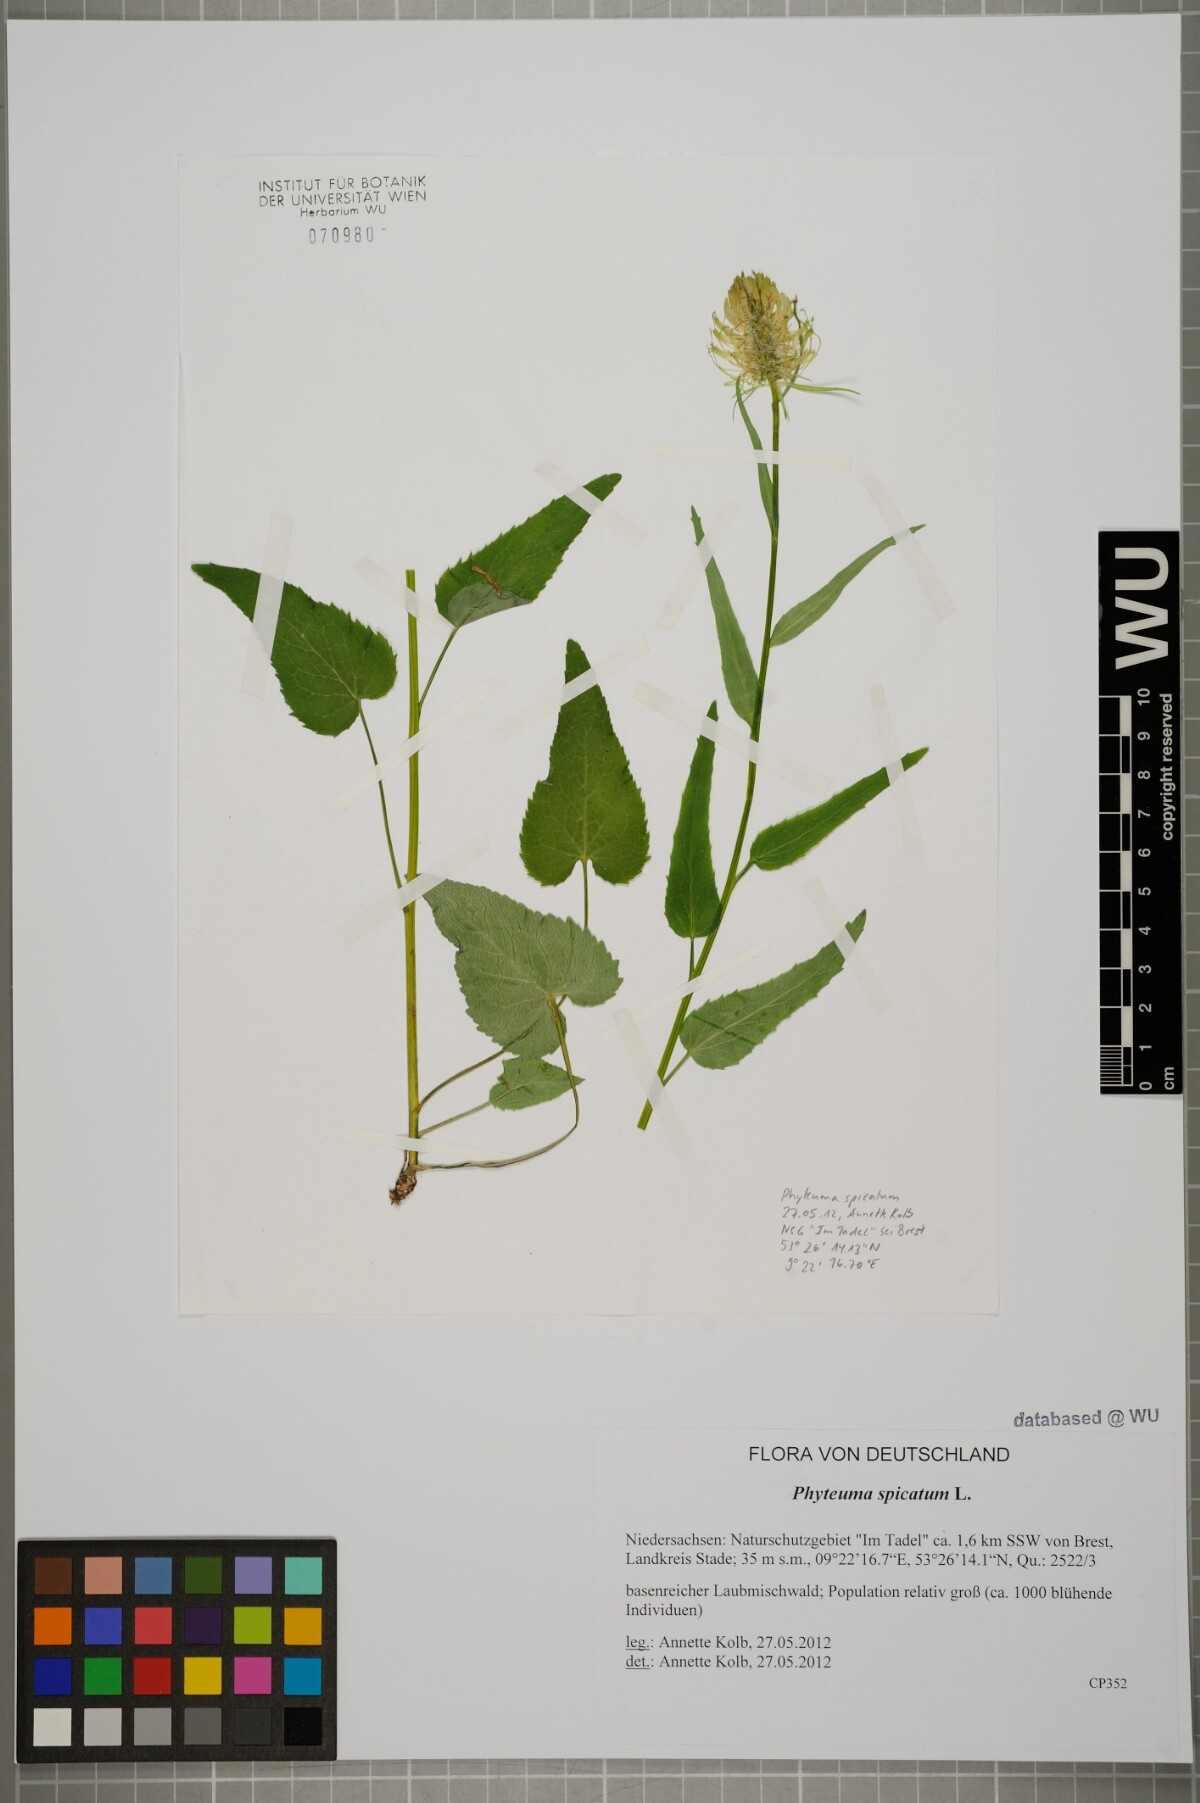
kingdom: Plantae
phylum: Tracheophyta
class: Magnoliopsida
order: Asterales
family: Campanulaceae
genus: Phyteuma
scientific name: Phyteuma spicatum
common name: Spiked rampion
